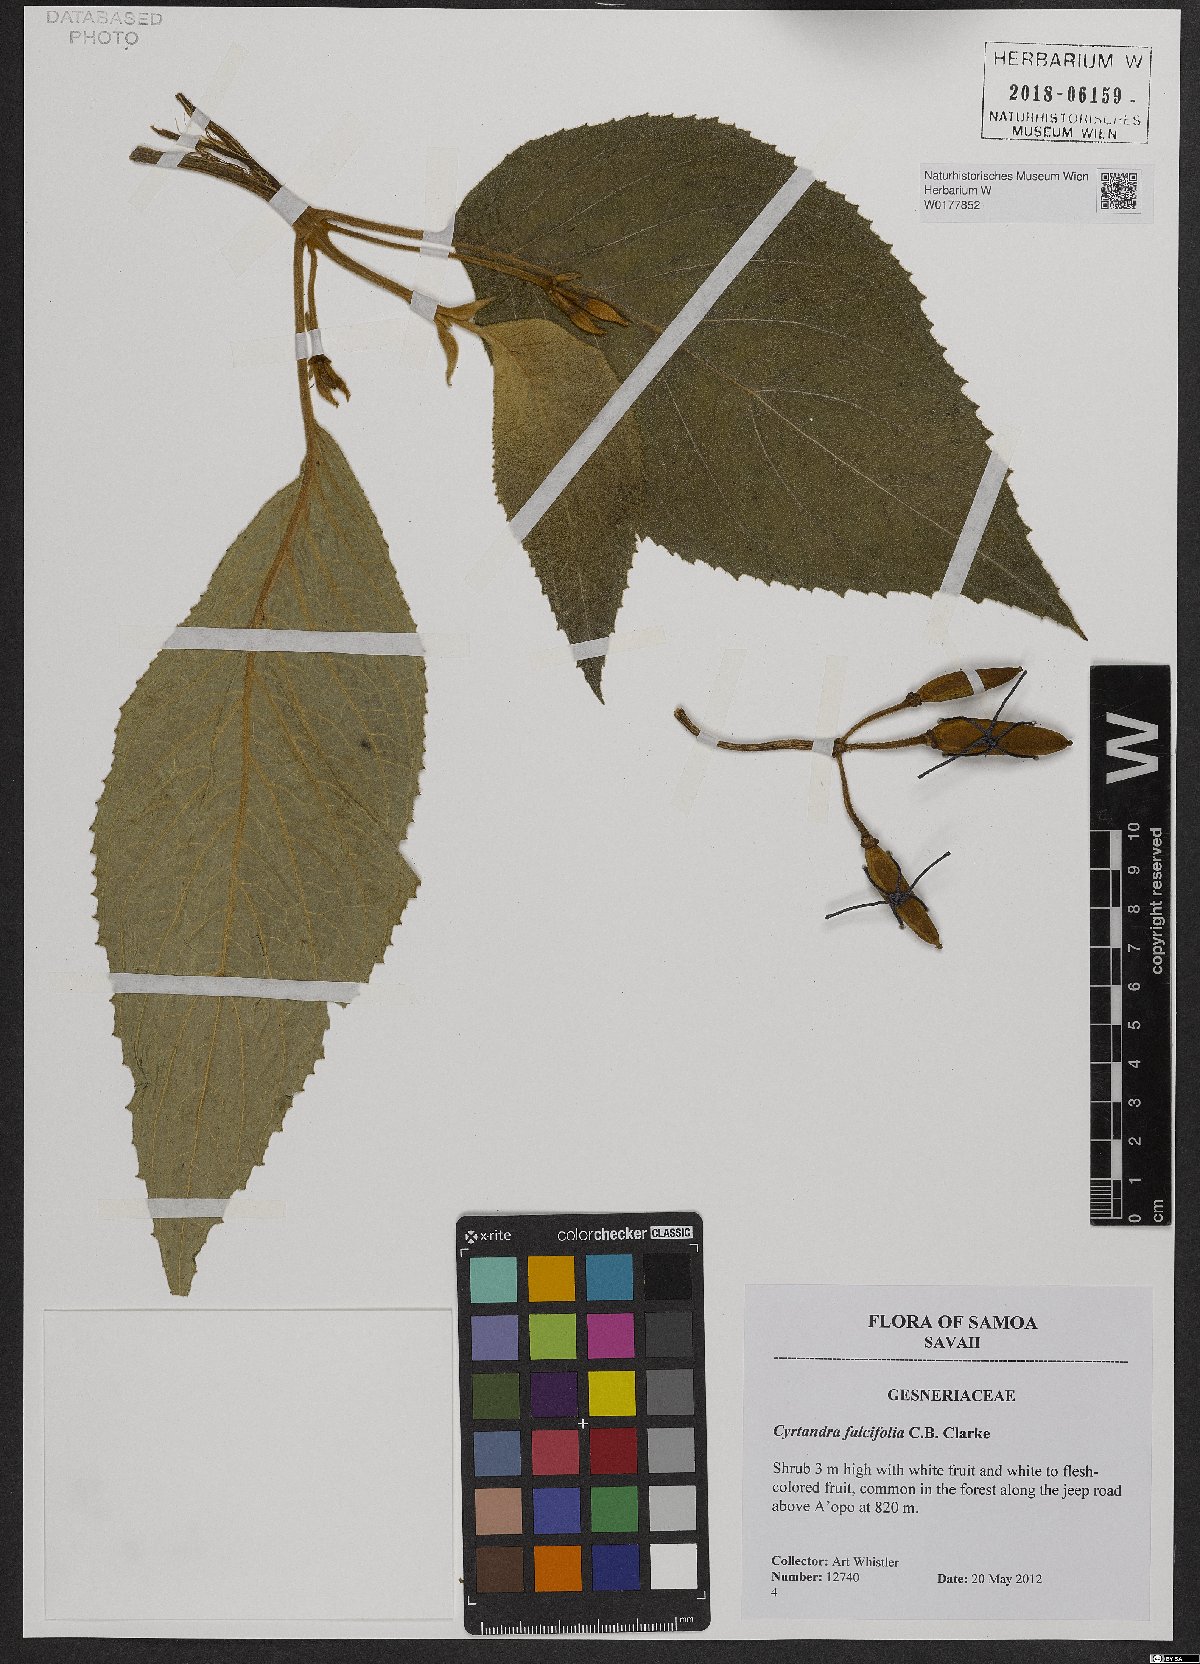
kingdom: Plantae
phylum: Tracheophyta
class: Magnoliopsida
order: Lamiales
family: Gesneriaceae
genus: Cyrtandra
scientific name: Cyrtandra falcifolia
